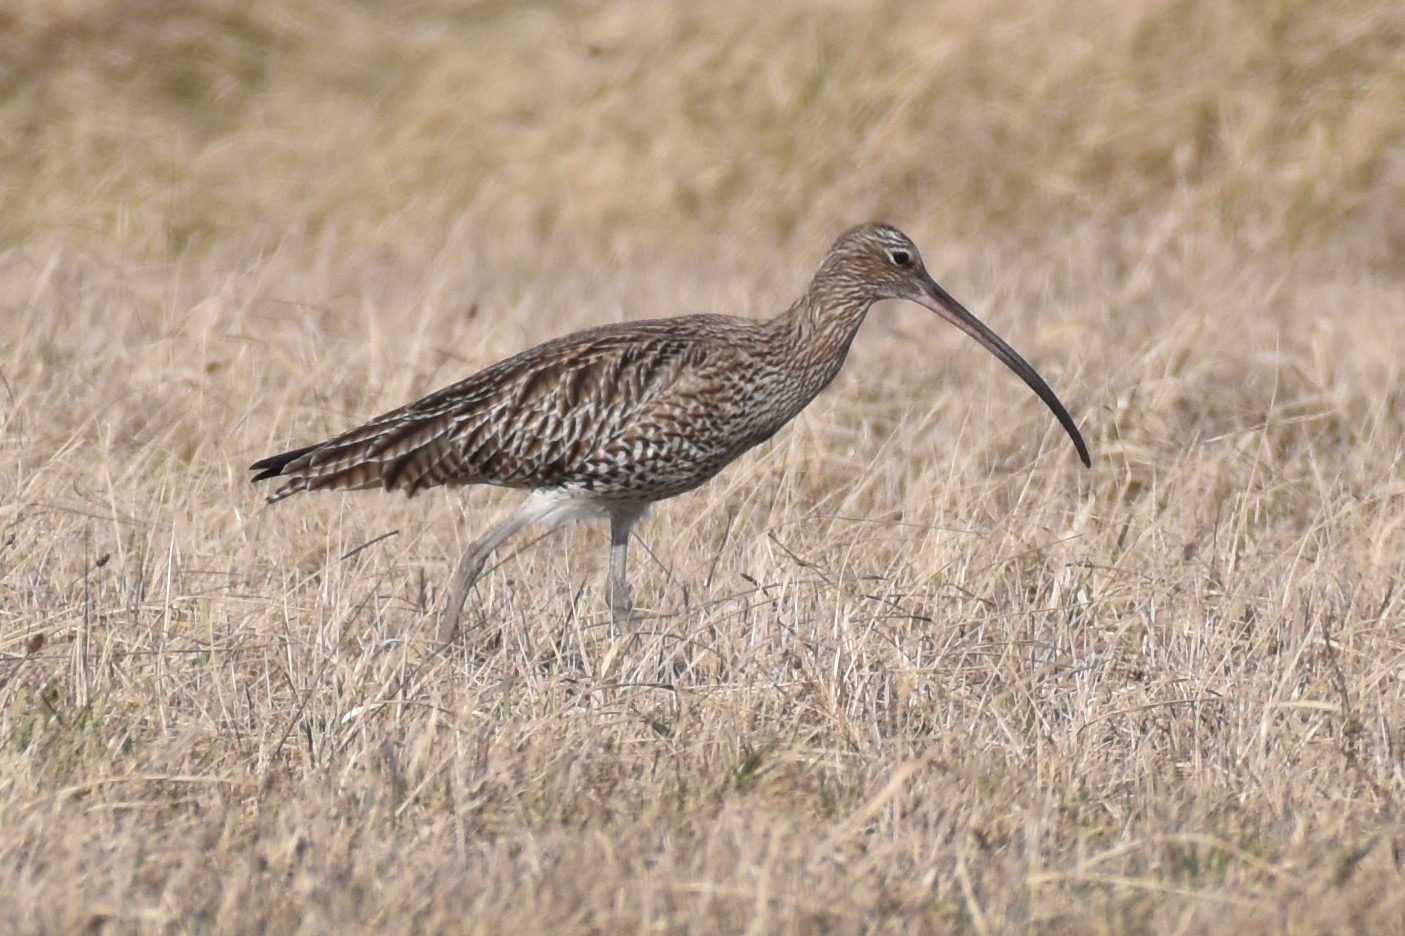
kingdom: Animalia
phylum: Chordata
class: Aves
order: Charadriiformes
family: Scolopacidae
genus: Numenius
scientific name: Numenius arquata
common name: Storspove
